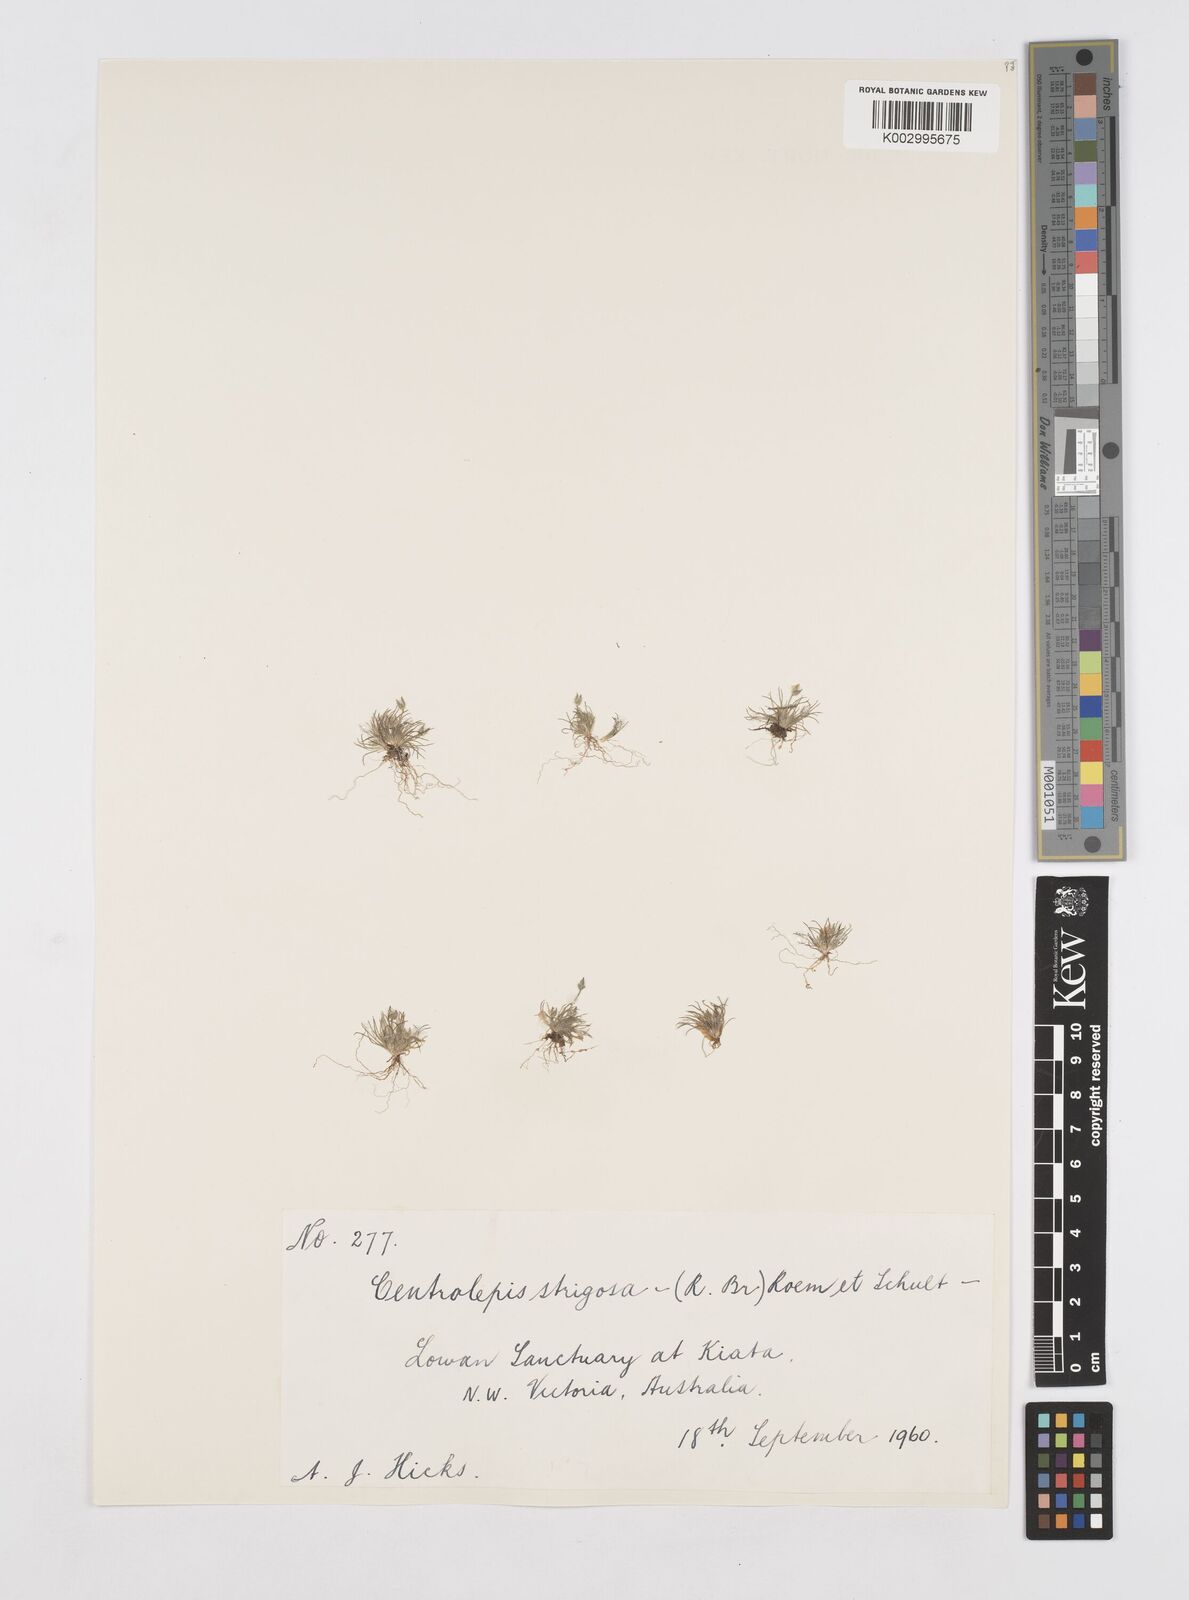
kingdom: Plantae
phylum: Tracheophyta
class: Liliopsida
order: Poales
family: Restionaceae
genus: Centrolepis
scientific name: Centrolepis strigosa
